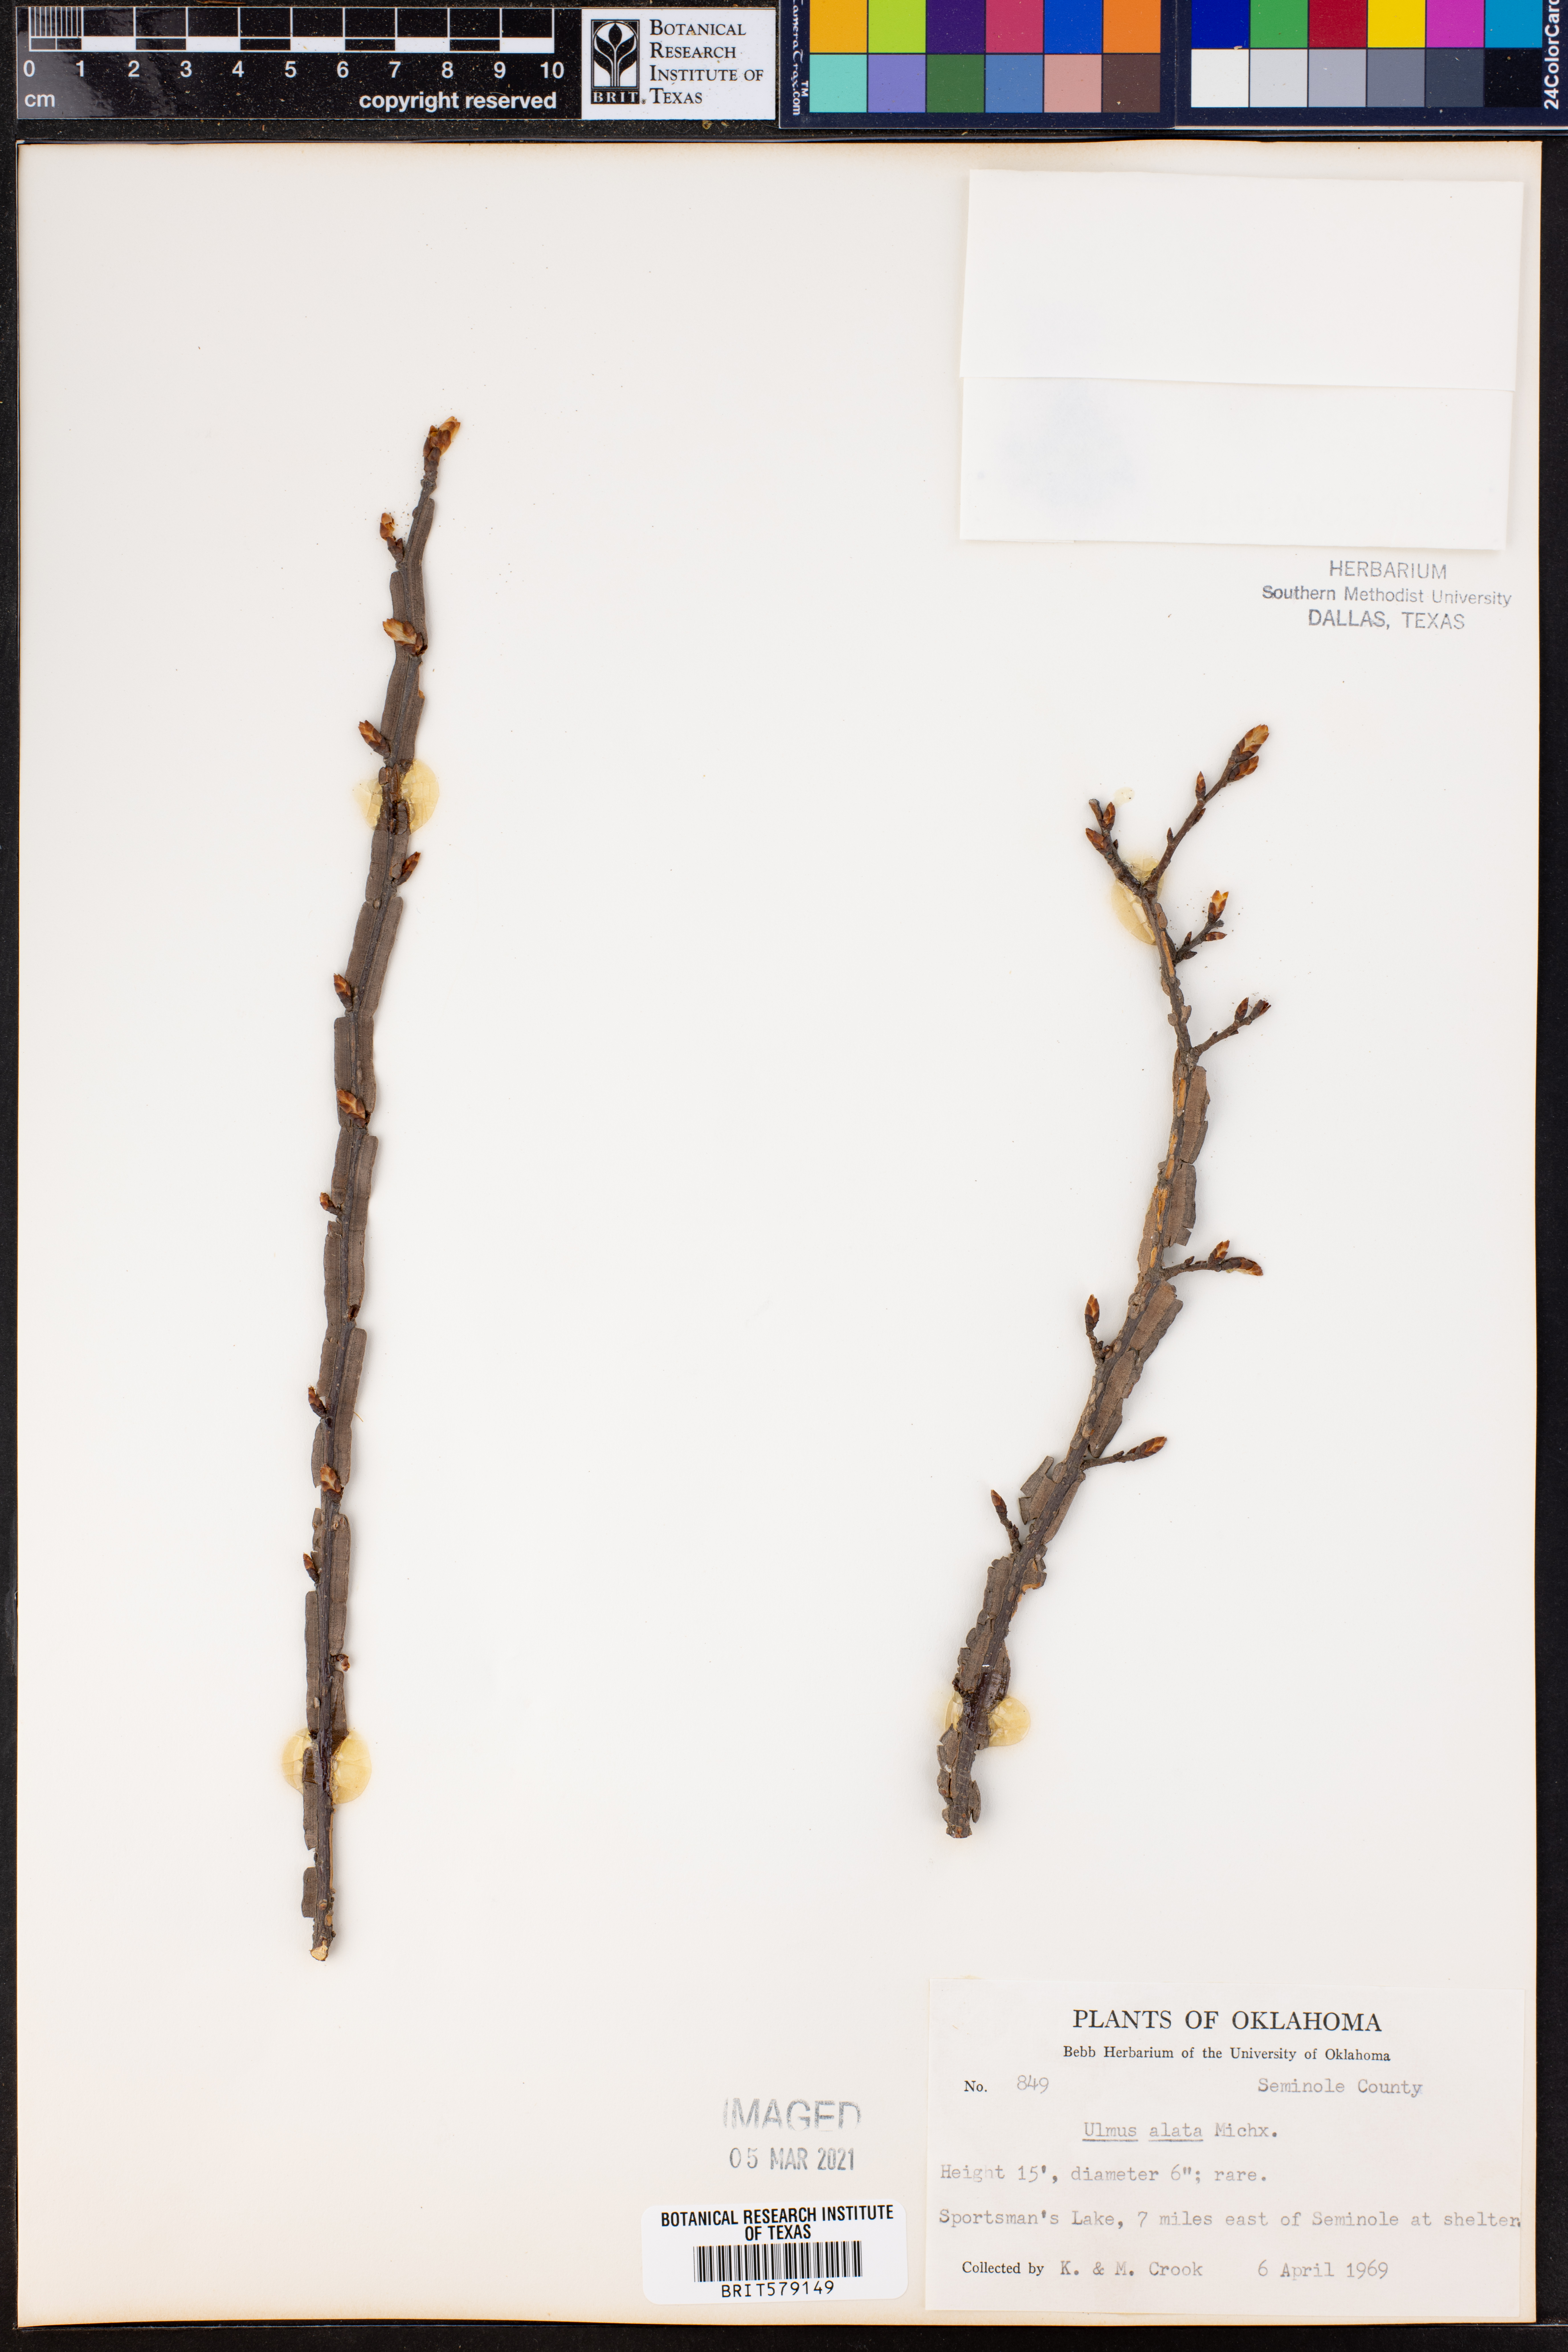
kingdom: Plantae
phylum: Tracheophyta
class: Magnoliopsida
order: Rosales
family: Ulmaceae
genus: Ulmus
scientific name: Ulmus alata
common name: Winged elm
